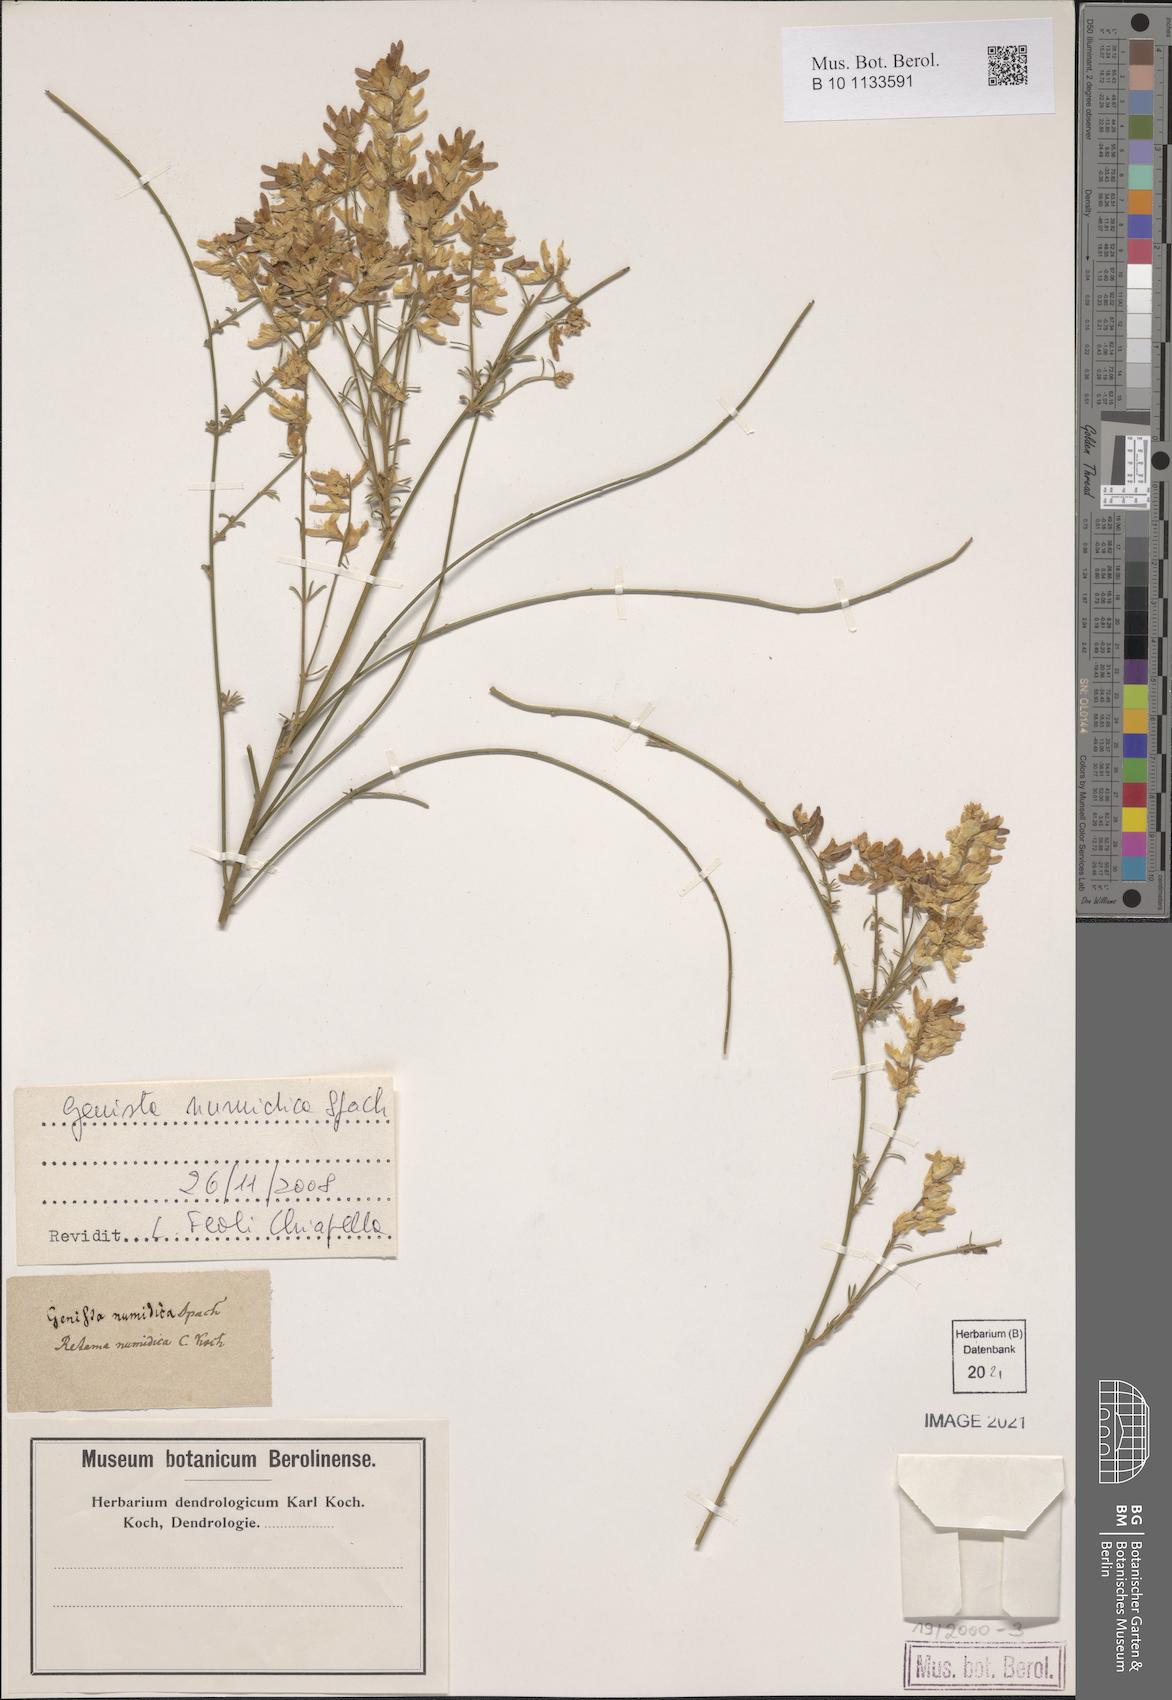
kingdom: Plantae
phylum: Tracheophyta
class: Magnoliopsida
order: Fabales
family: Fabaceae
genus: Genista
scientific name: Genista numidica
